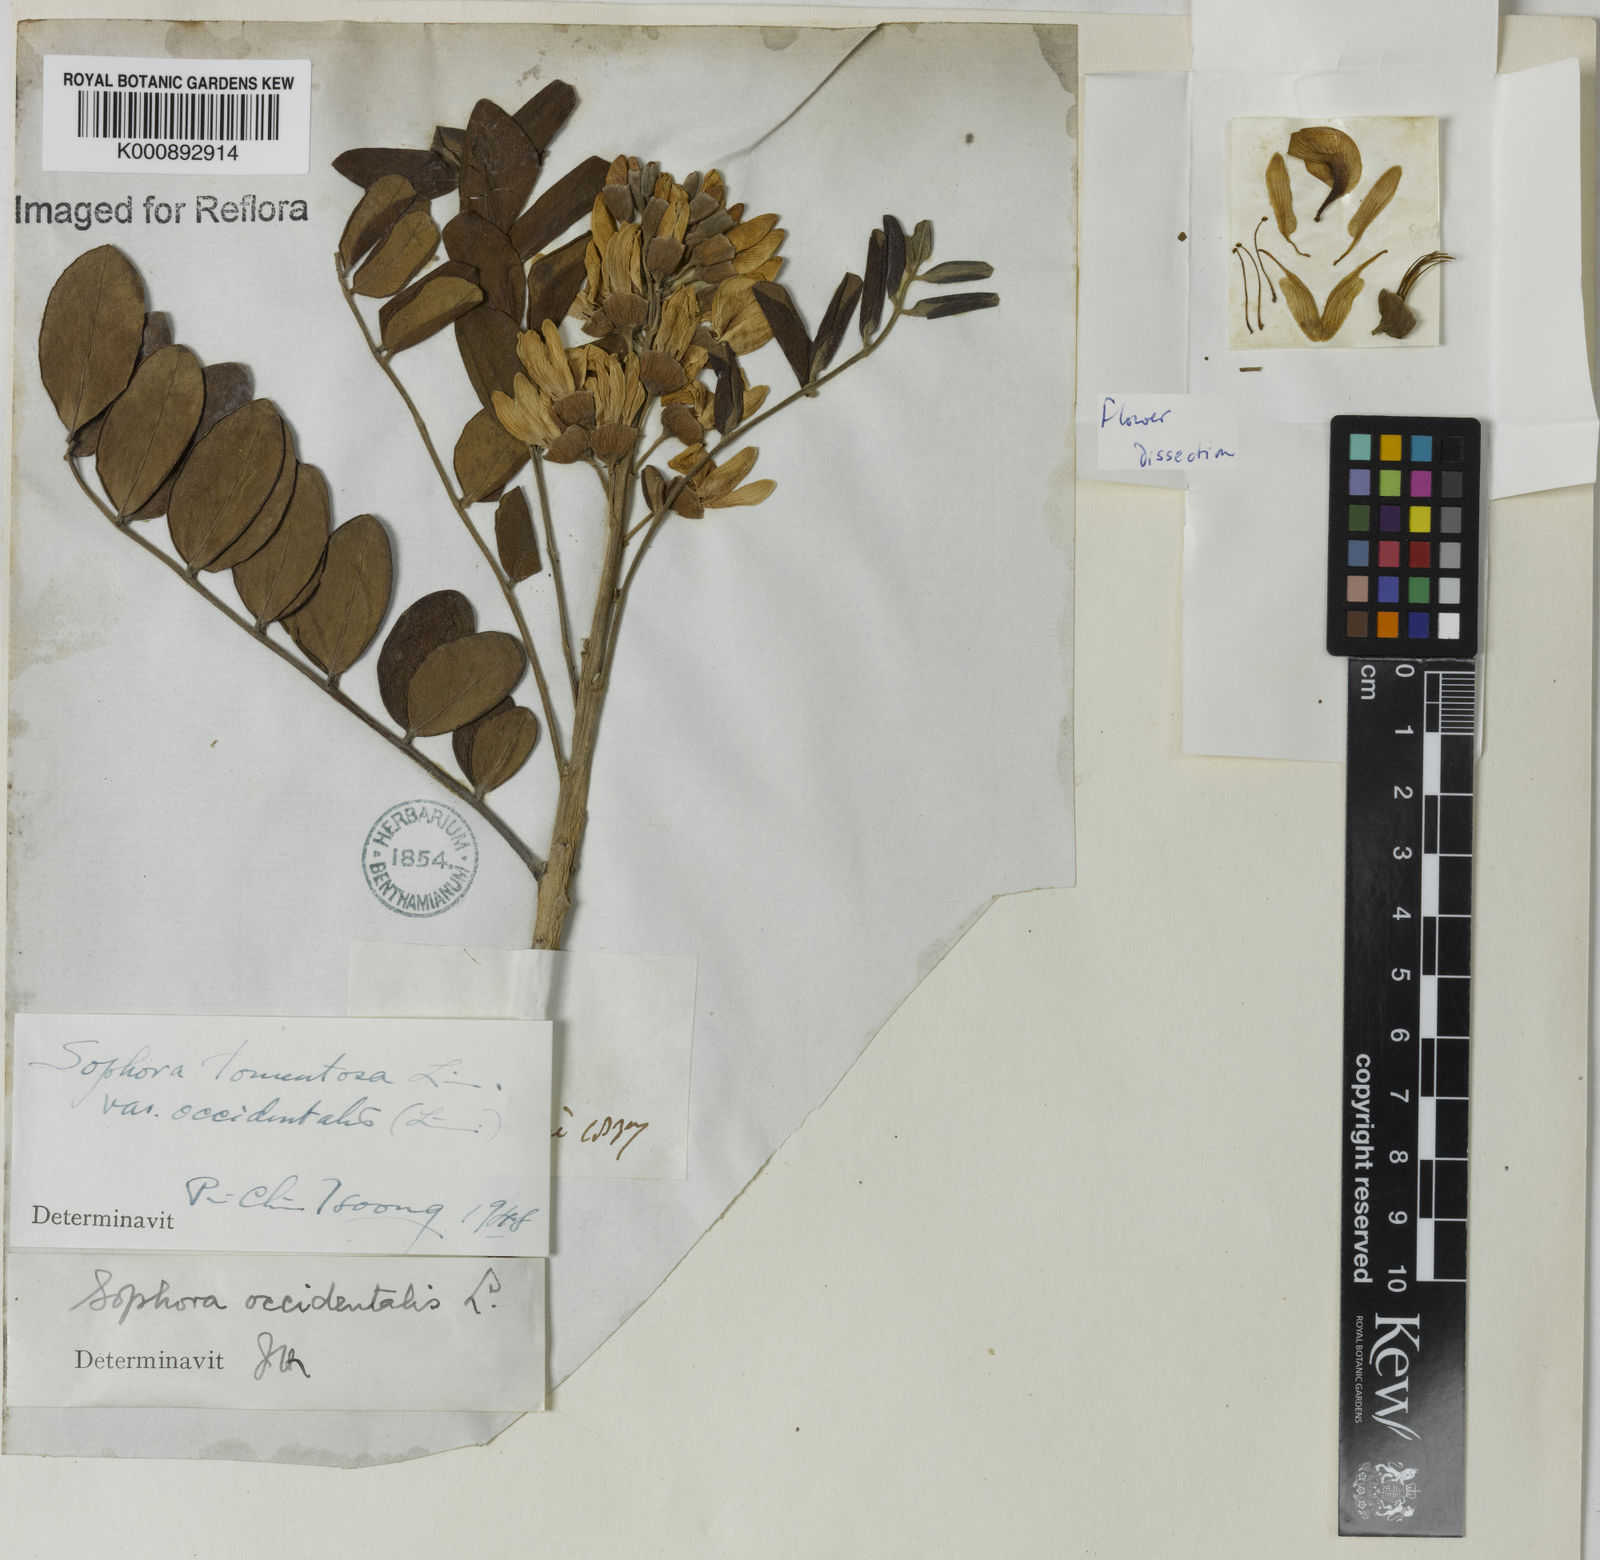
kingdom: Plantae
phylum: Tracheophyta
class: Magnoliopsida
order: Fabales
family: Fabaceae
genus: Sophora
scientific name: Sophora tomentosa
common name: Yellow necklacepod
